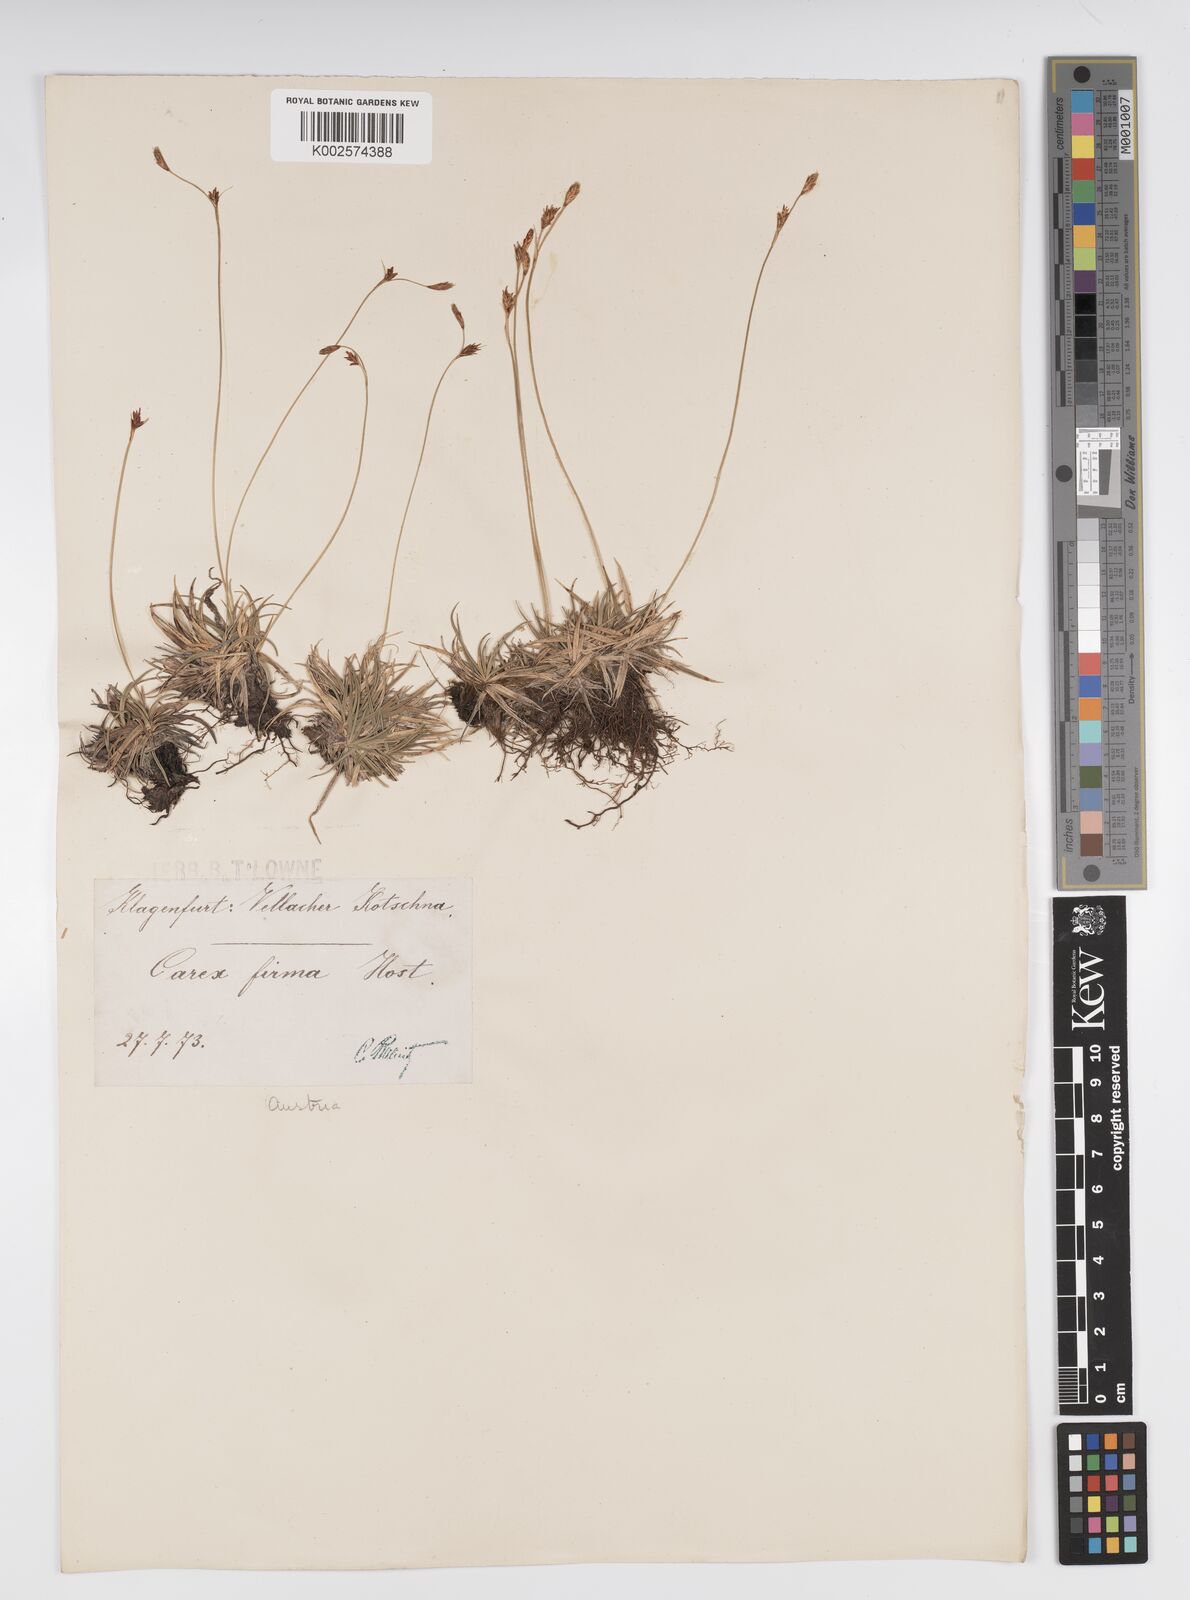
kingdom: Plantae
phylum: Tracheophyta
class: Liliopsida
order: Poales
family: Cyperaceae
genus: Carex
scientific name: Carex firma
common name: Dwarf pillow sedge
